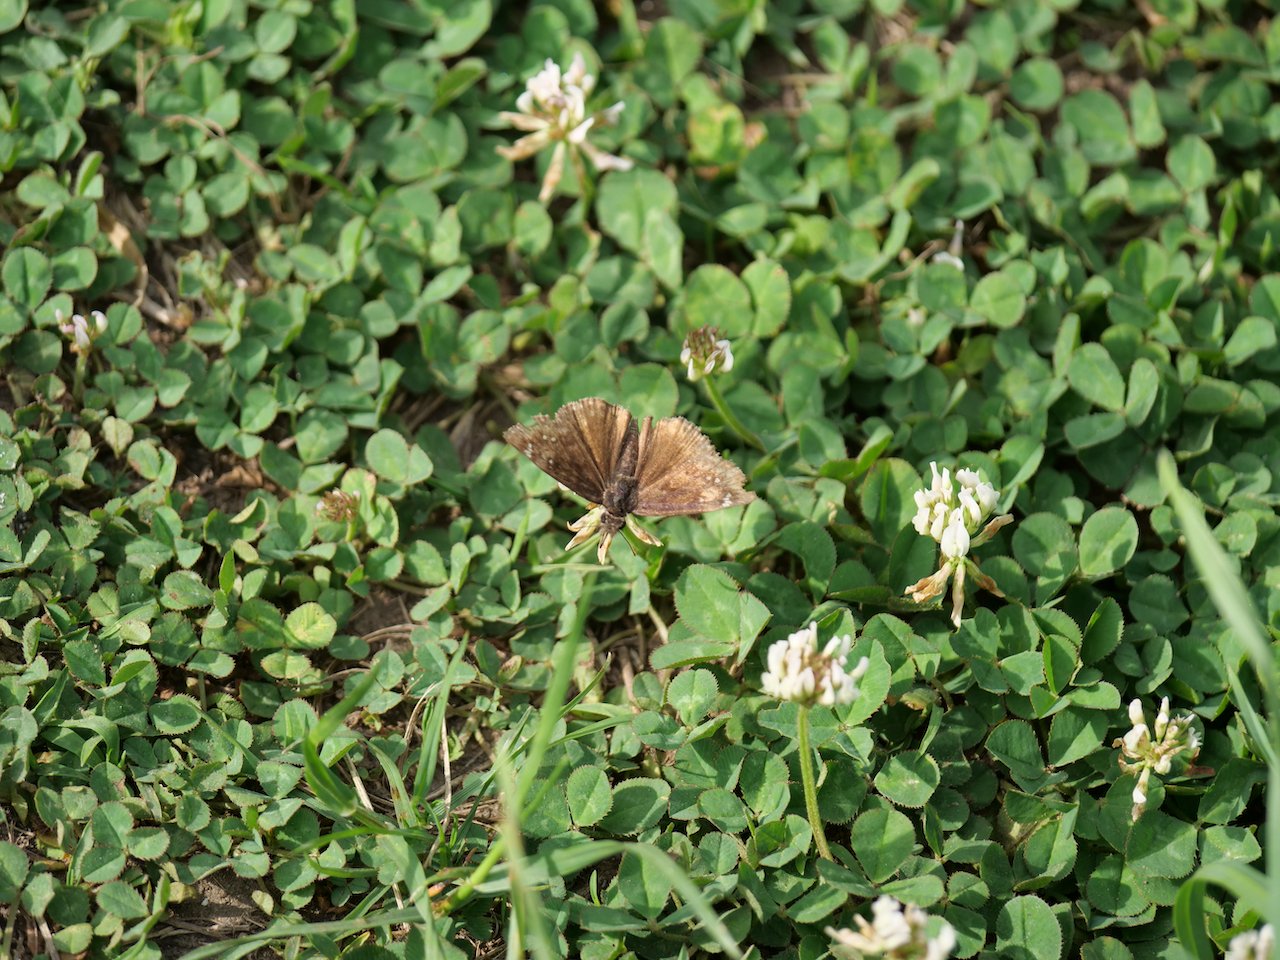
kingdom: Animalia
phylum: Arthropoda
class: Insecta
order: Lepidoptera
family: Hesperiidae
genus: Gesta
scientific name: Gesta
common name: Wild Indigo Duskywing
